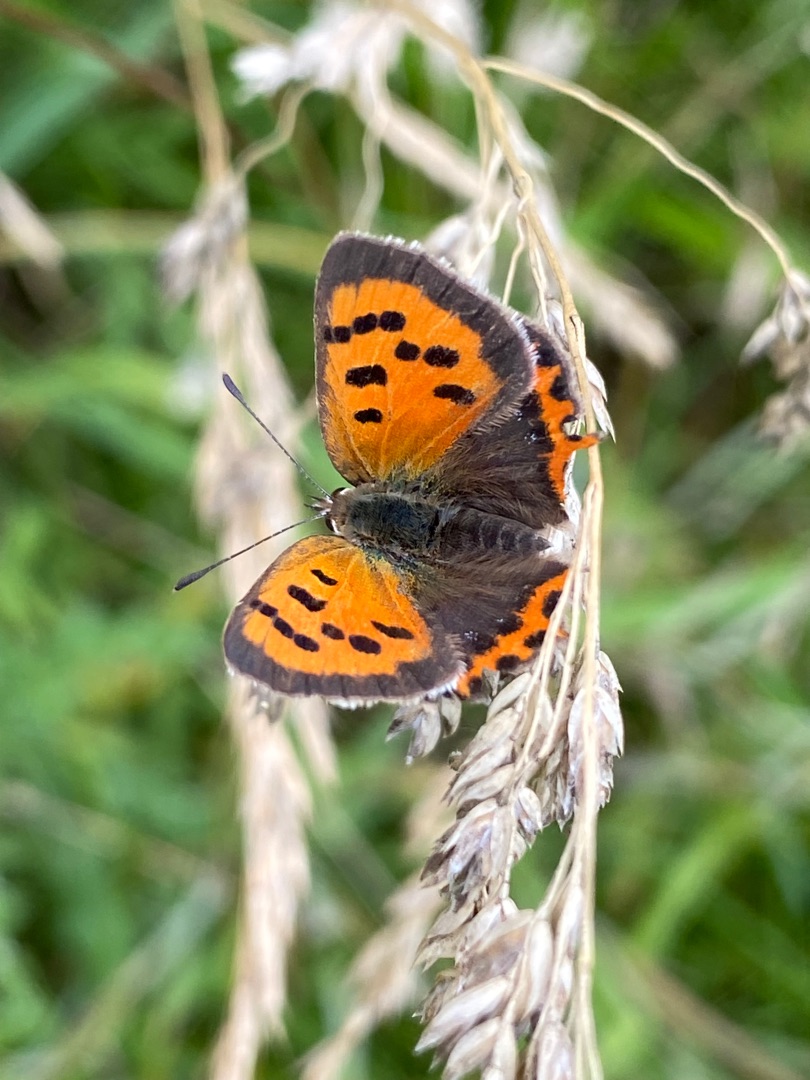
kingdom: Animalia
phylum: Arthropoda
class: Insecta
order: Lepidoptera
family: Lycaenidae
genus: Lycaena
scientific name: Lycaena phlaeas
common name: Lille ildfugl
